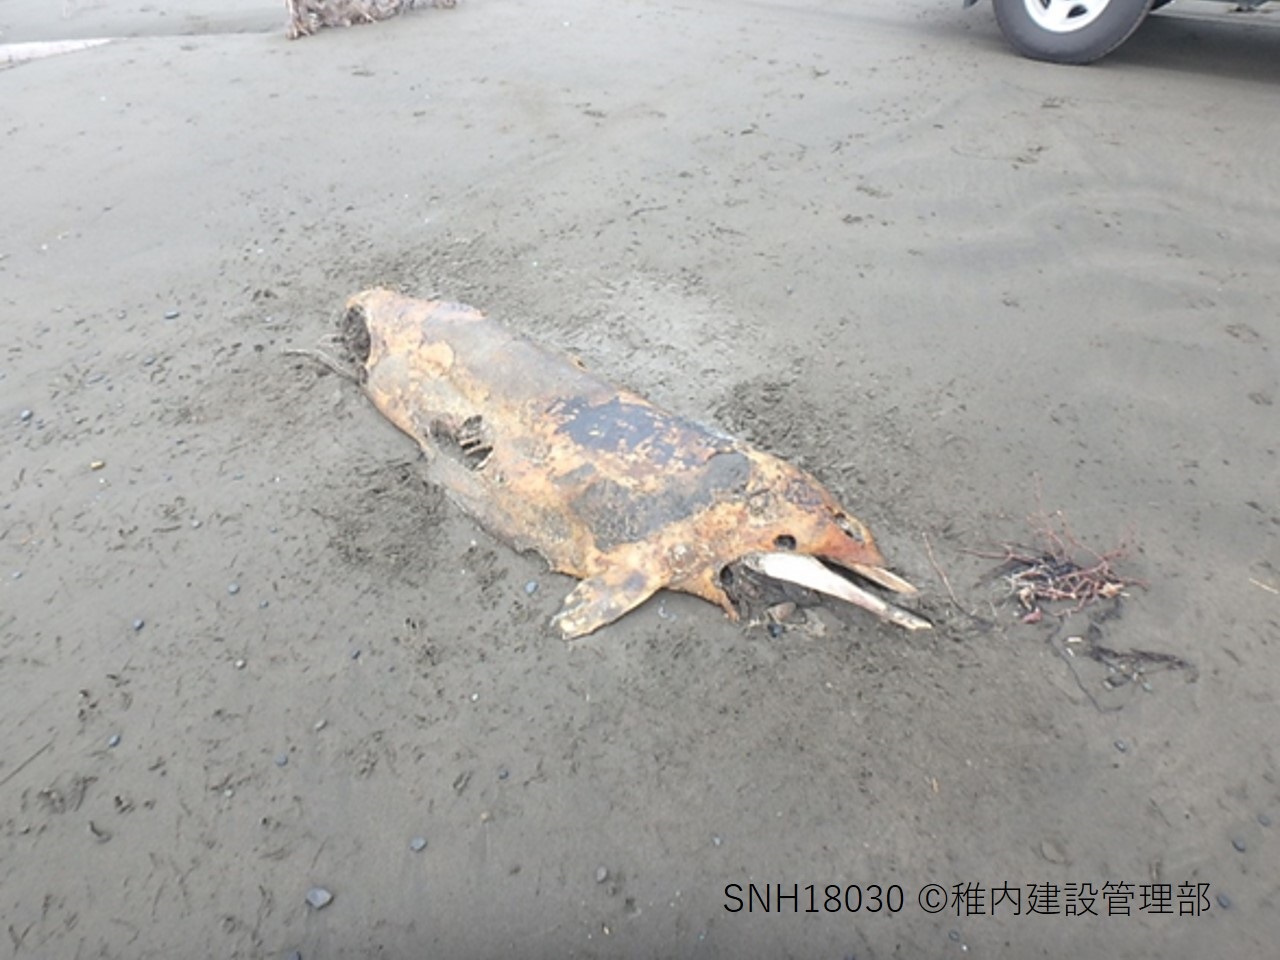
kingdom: Animalia
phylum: Chordata
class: Mammalia
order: Cetacea
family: Delphinidae
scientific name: Delphinidae
